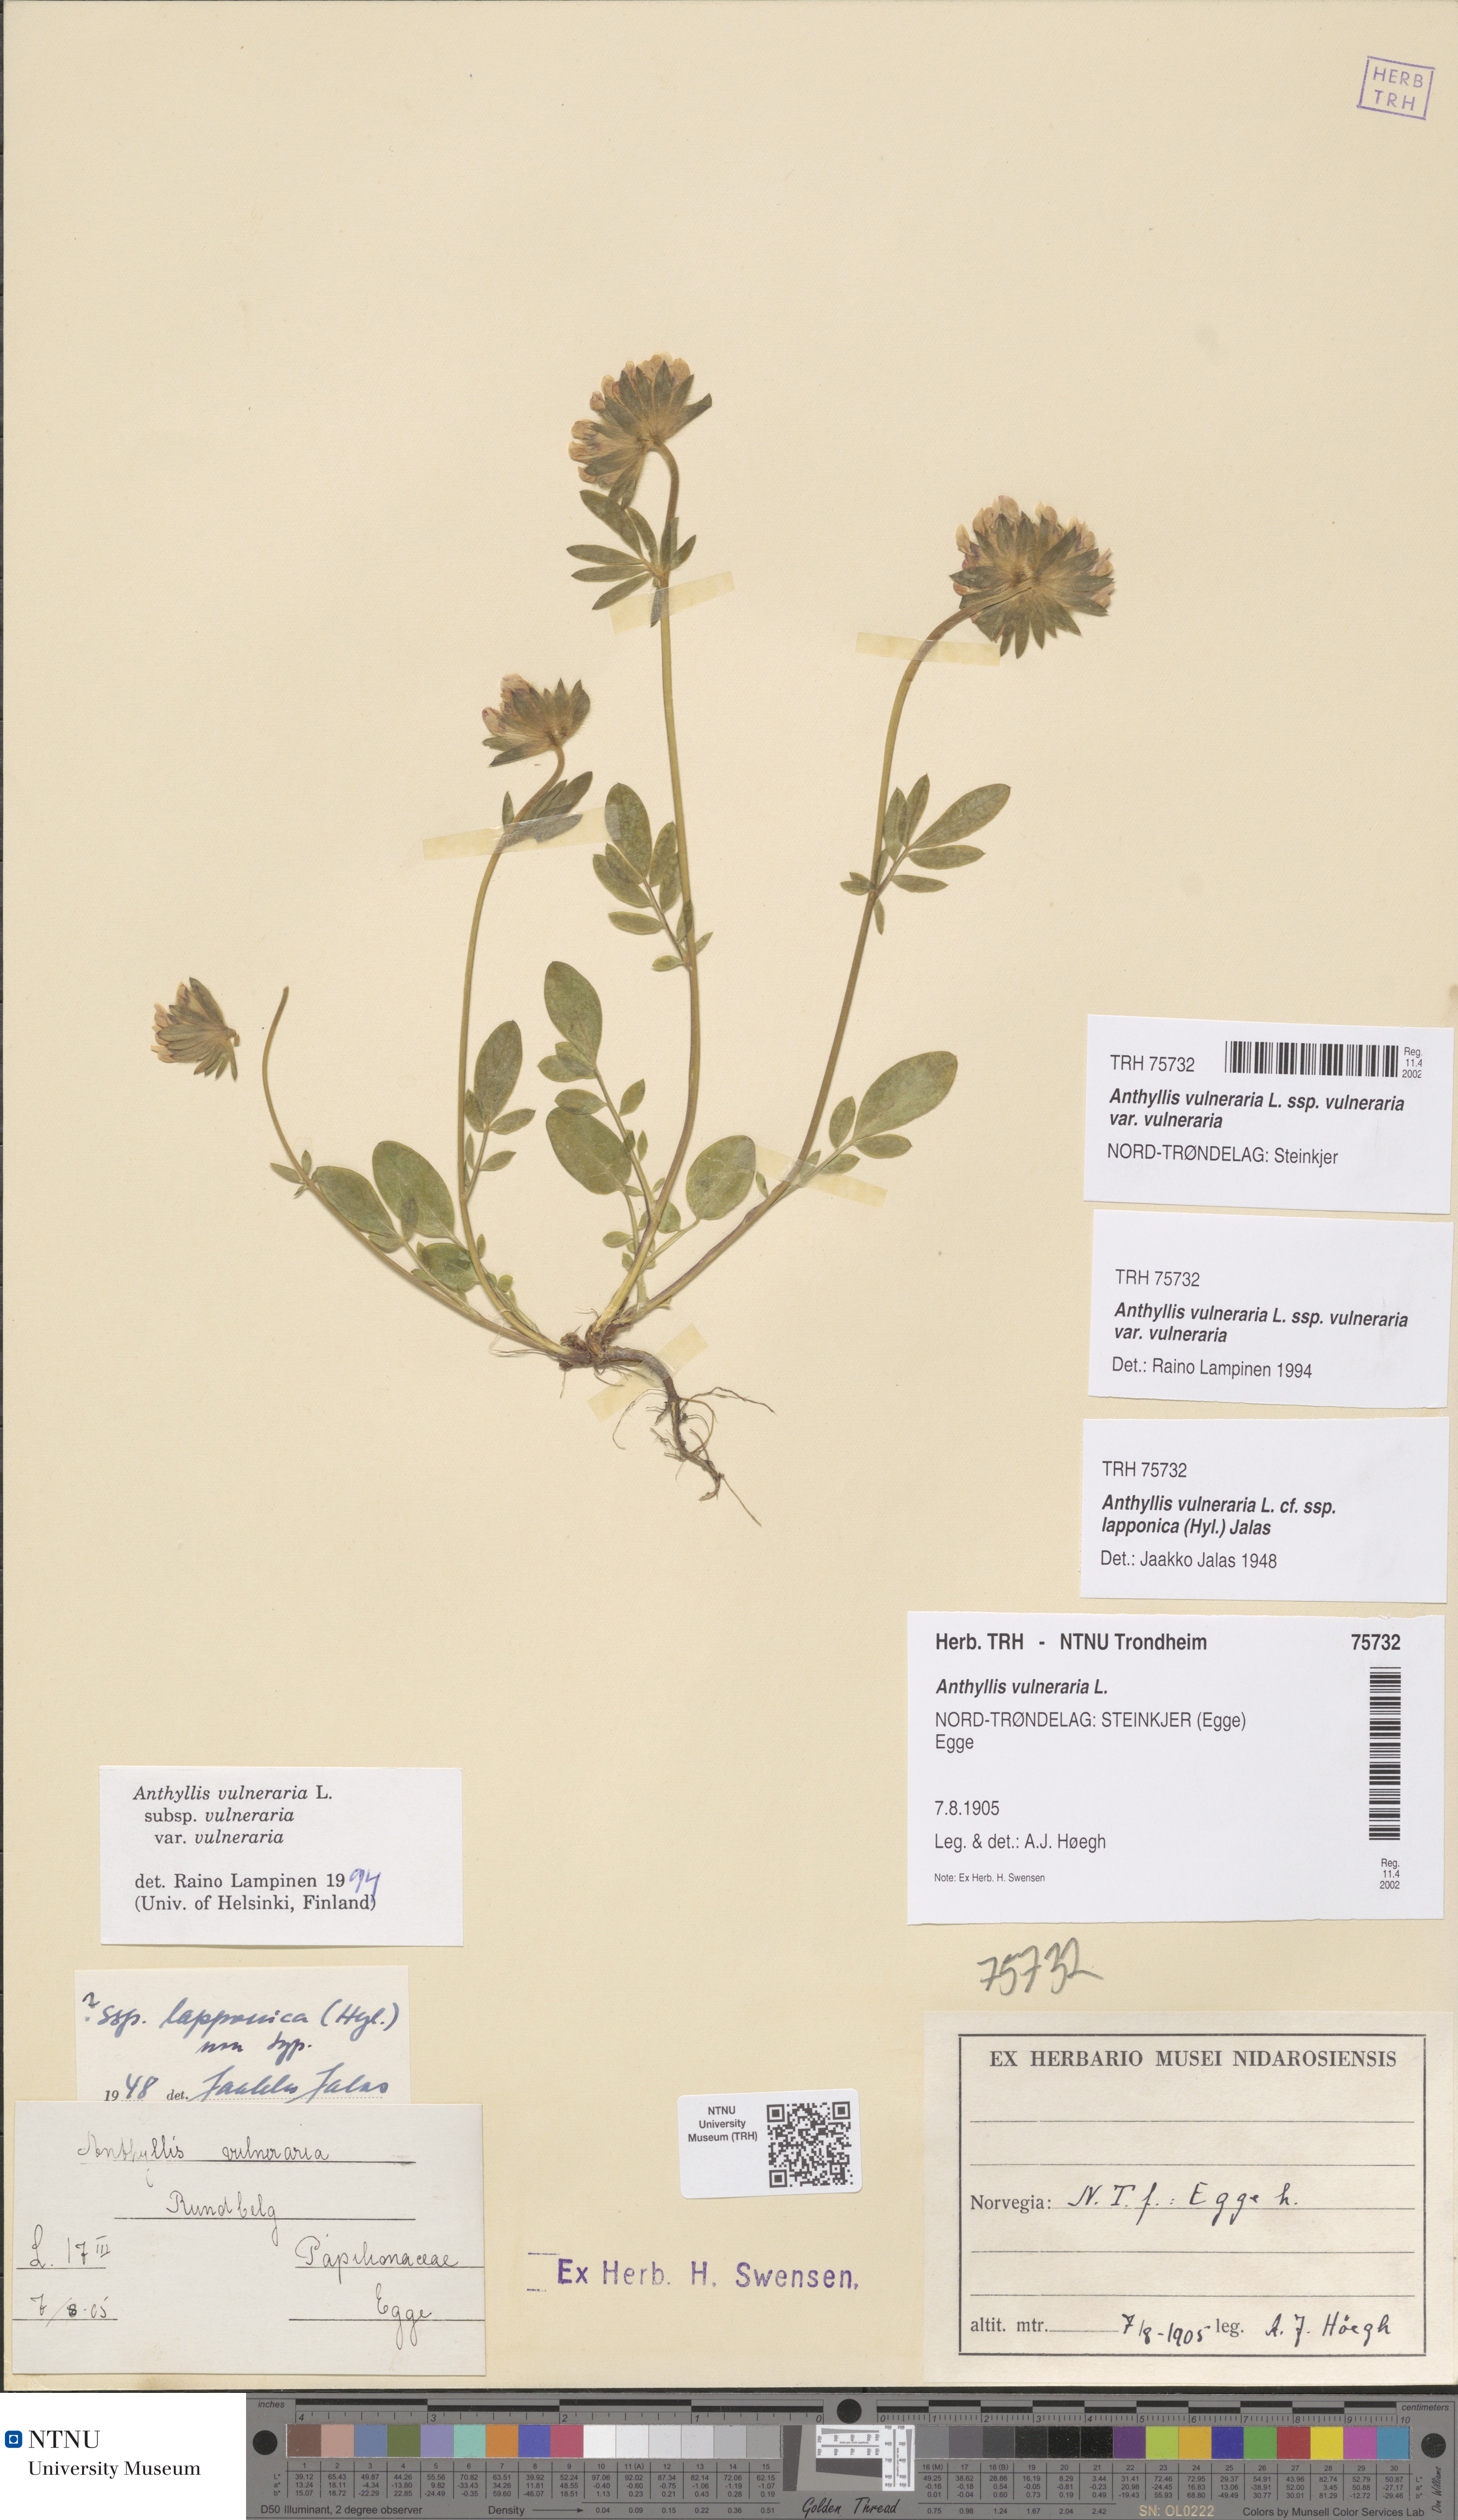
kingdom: Plantae
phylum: Tracheophyta
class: Magnoliopsida
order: Fabales
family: Fabaceae
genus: Anthyllis
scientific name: Anthyllis vulneraria
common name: Kidney vetch
